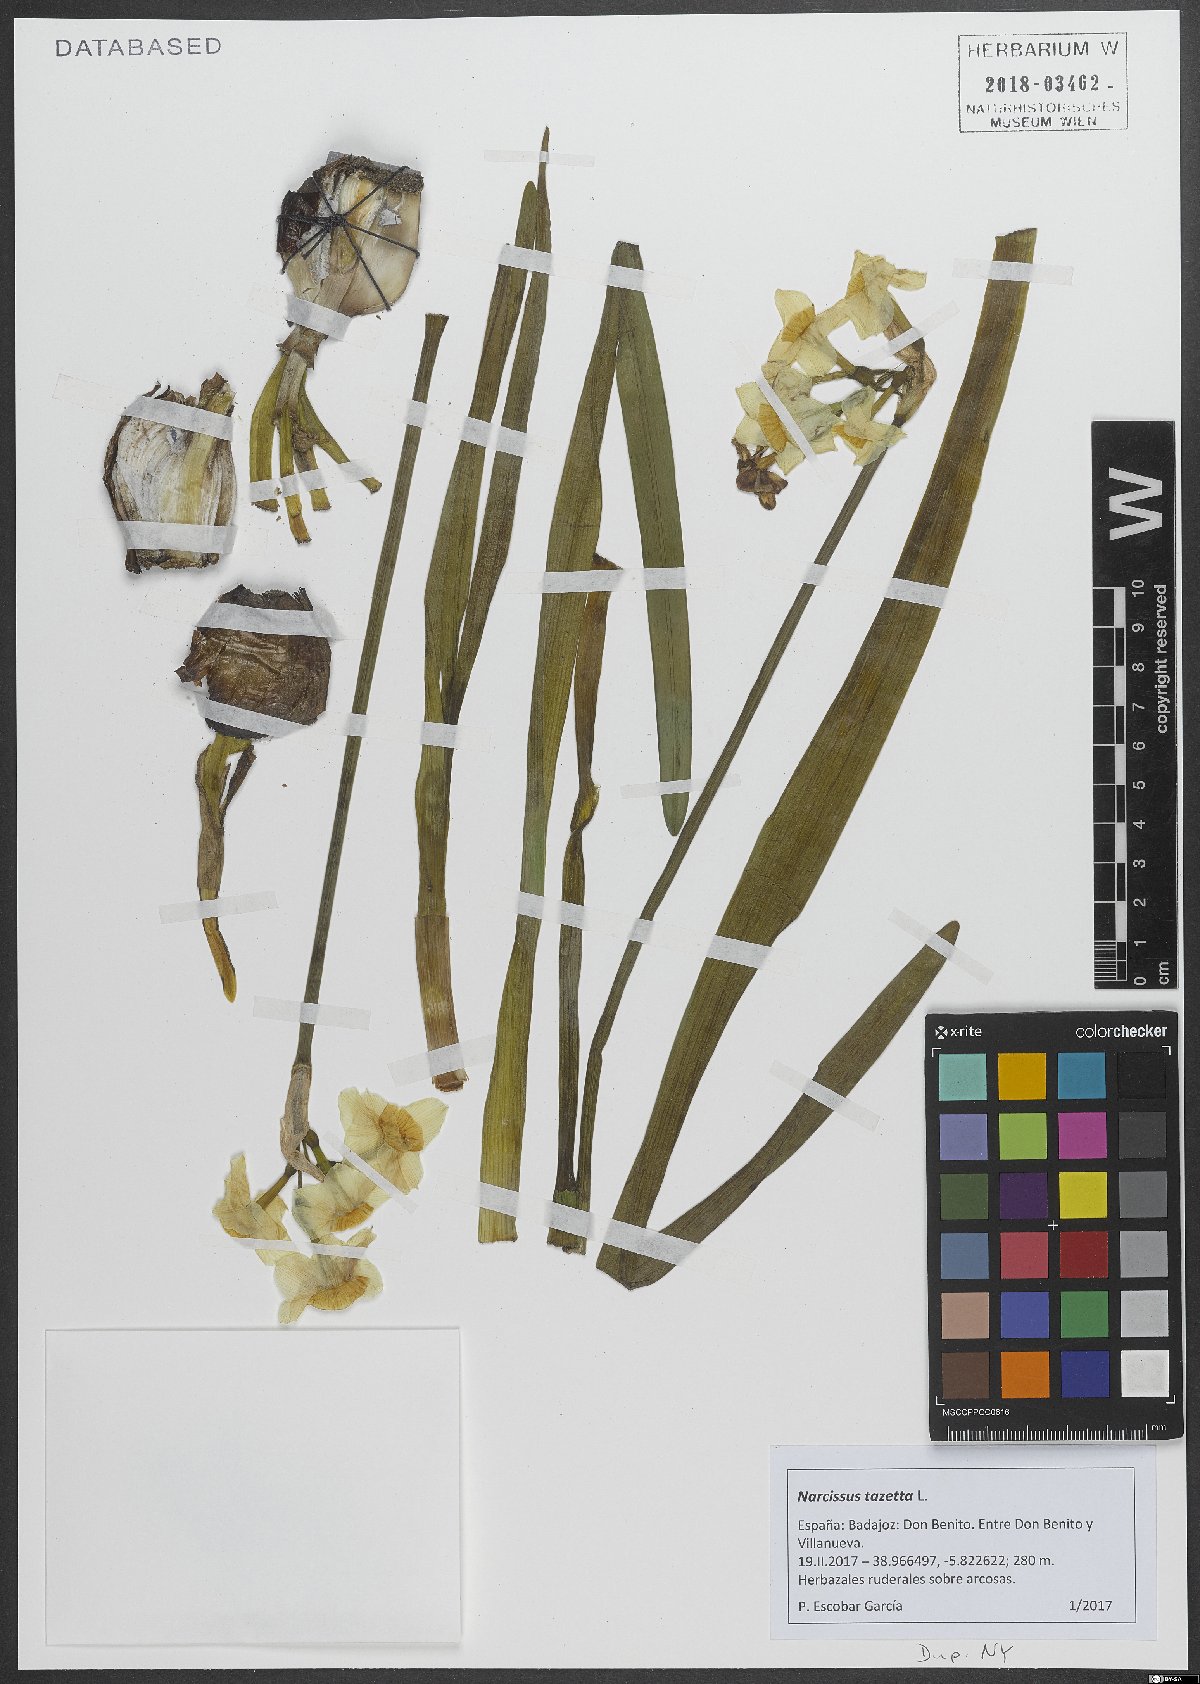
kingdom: Plantae
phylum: Tracheophyta
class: Liliopsida
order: Asparagales
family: Amaryllidaceae
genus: Narcissus
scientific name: Narcissus tazetta
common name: Bunch-flowered daffodil
